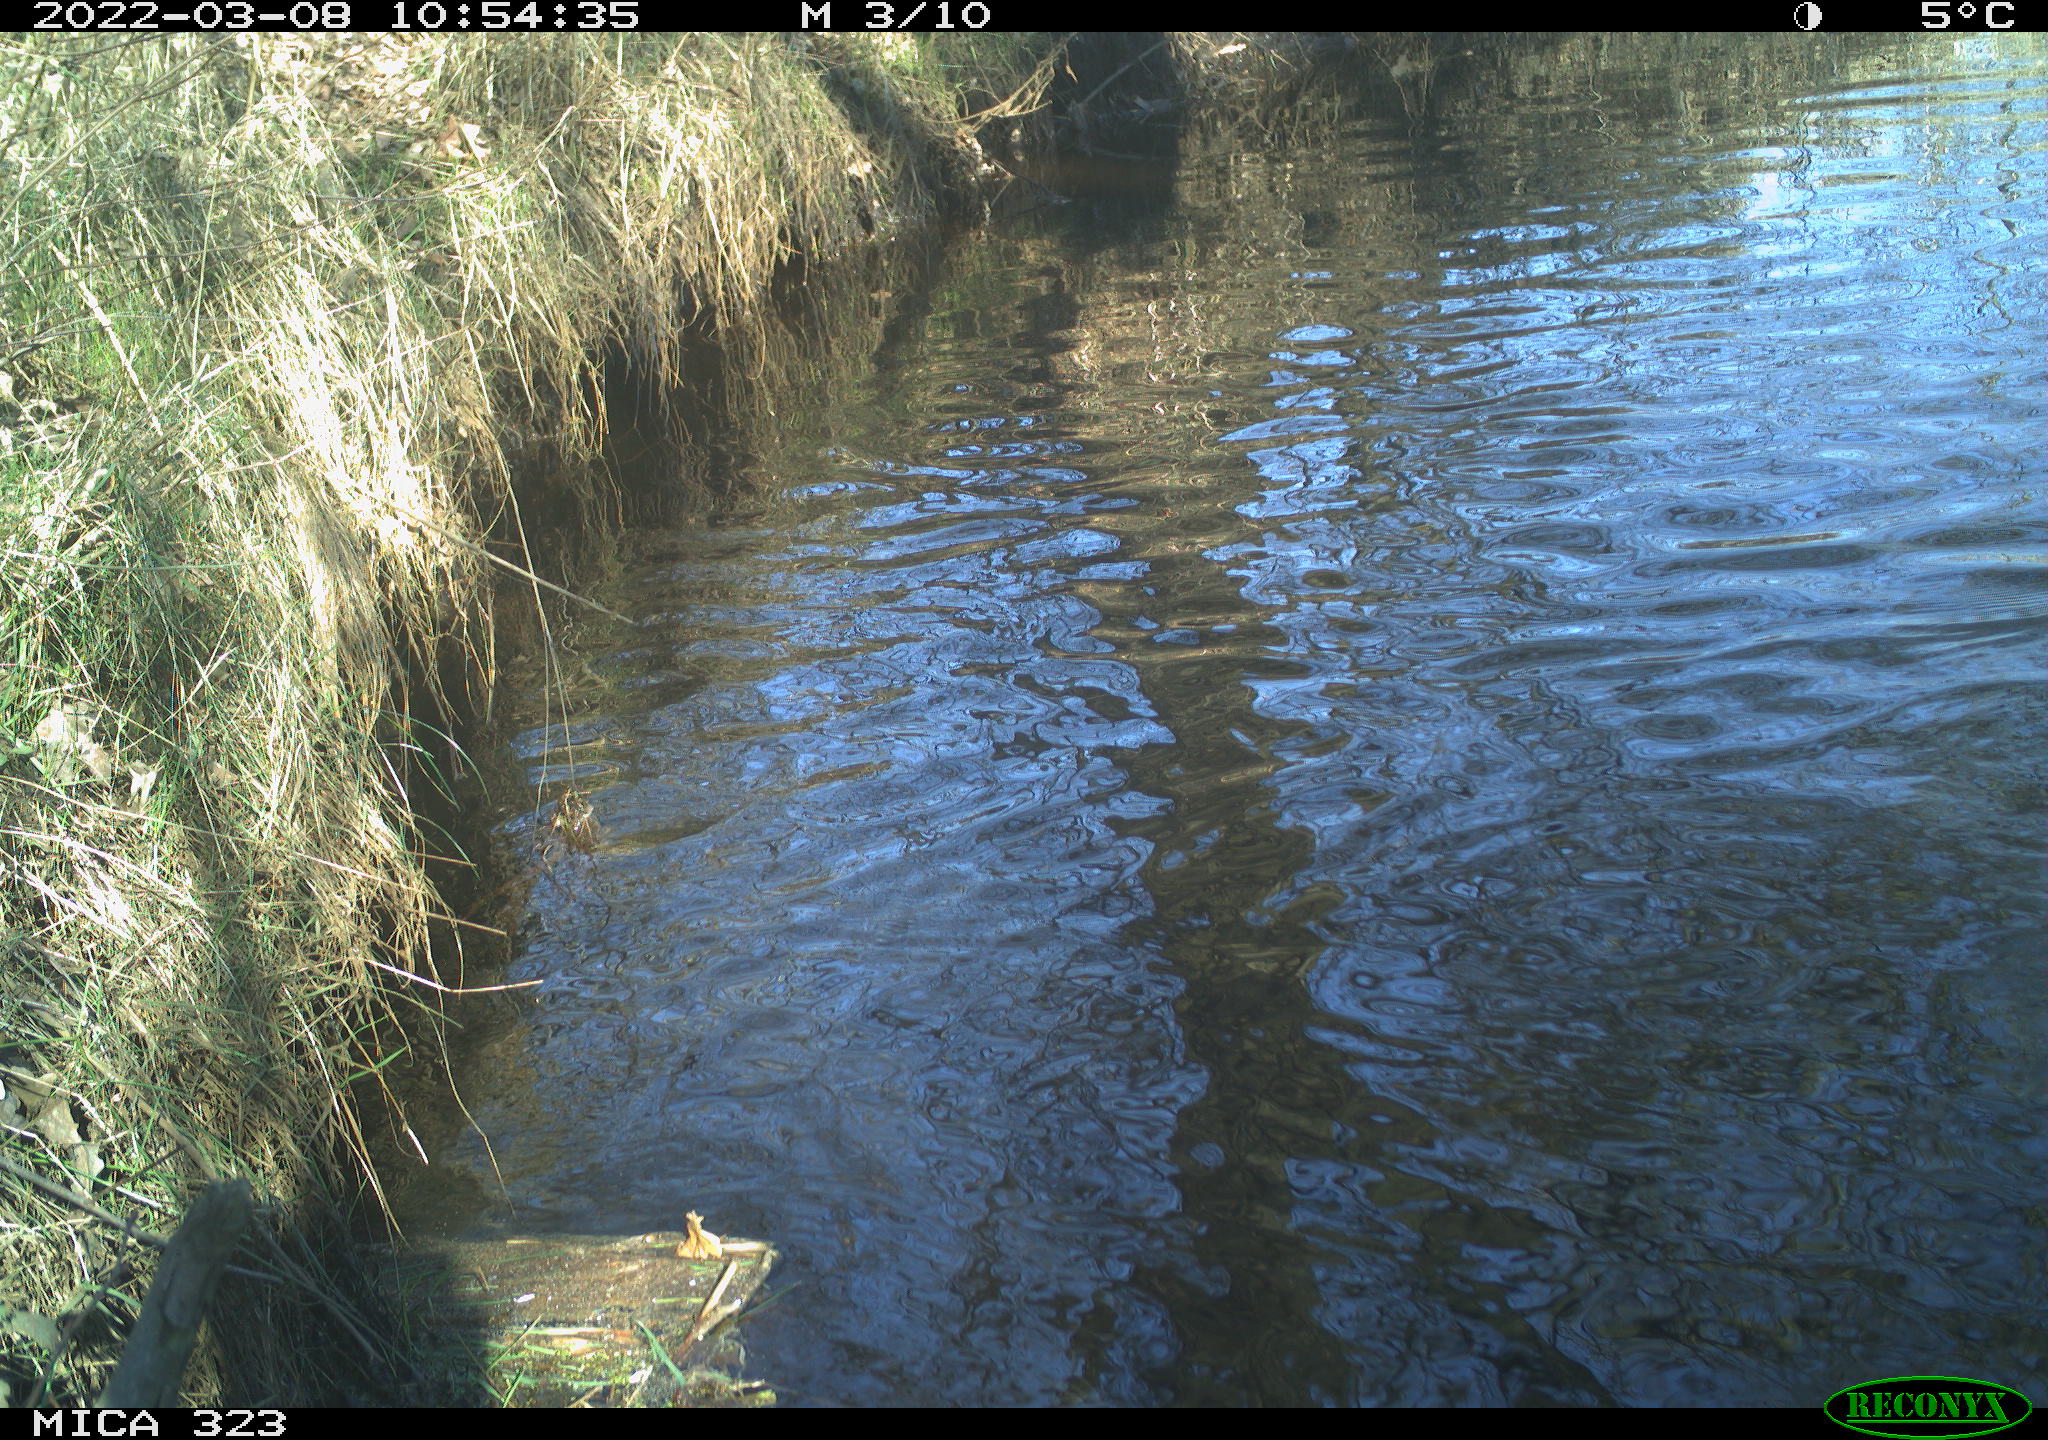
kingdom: Animalia
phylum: Chordata
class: Aves
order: Anseriformes
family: Anatidae
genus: Anas
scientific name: Anas
